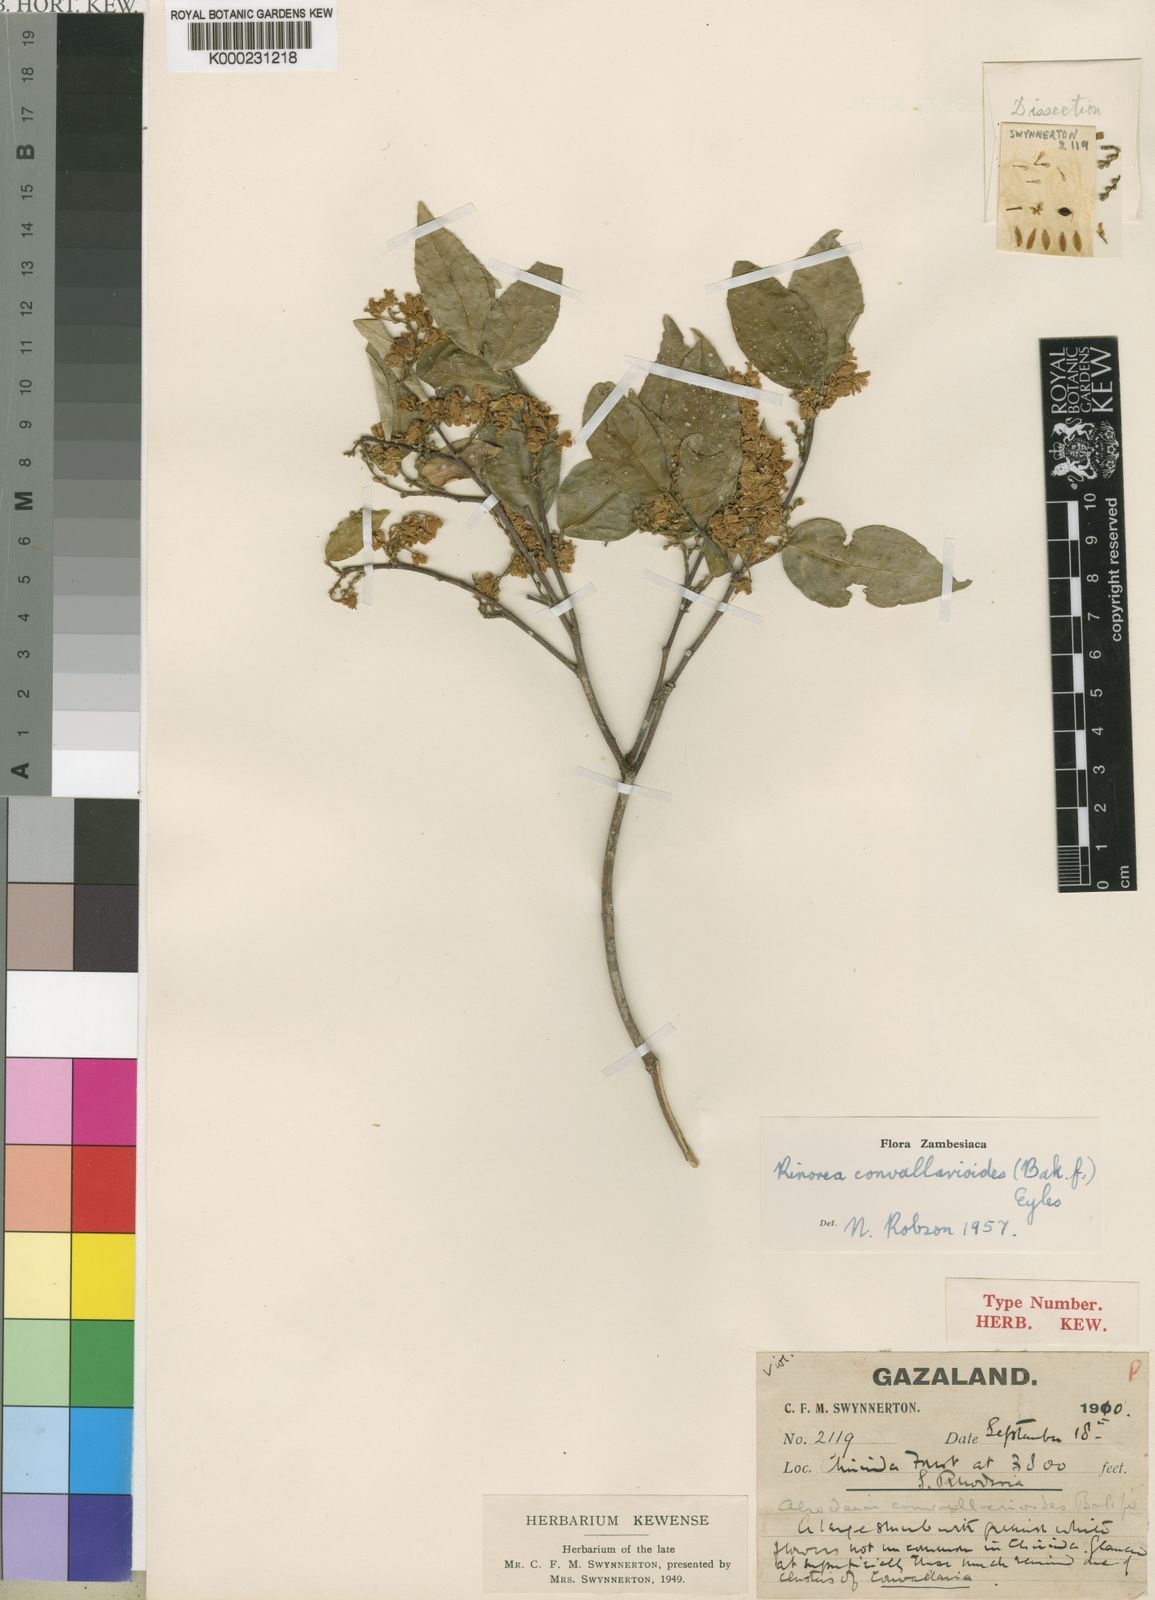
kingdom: Plantae
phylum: Tracheophyta
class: Magnoliopsida
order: Malpighiales
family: Violaceae
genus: Rinorea
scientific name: Rinorea convallarioides
